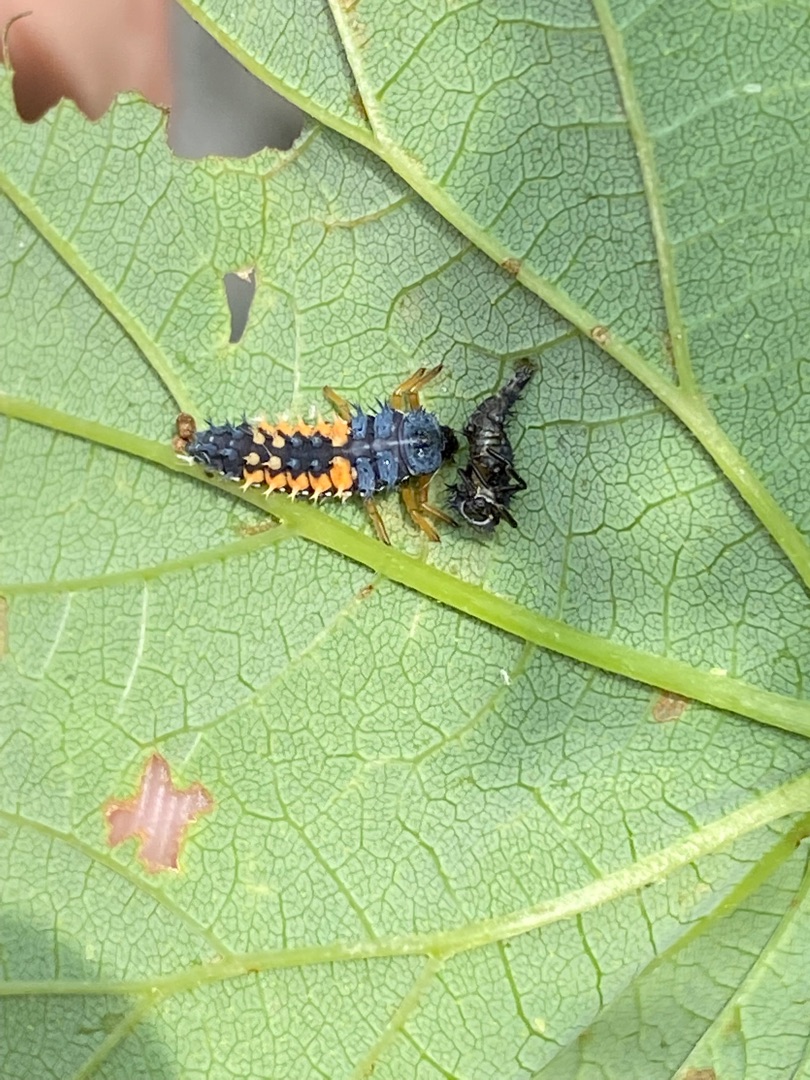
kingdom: Animalia
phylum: Arthropoda
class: Insecta
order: Coleoptera
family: Coccinellidae
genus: Harmonia
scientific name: Harmonia axyridis
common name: Harlekinmariehøne
